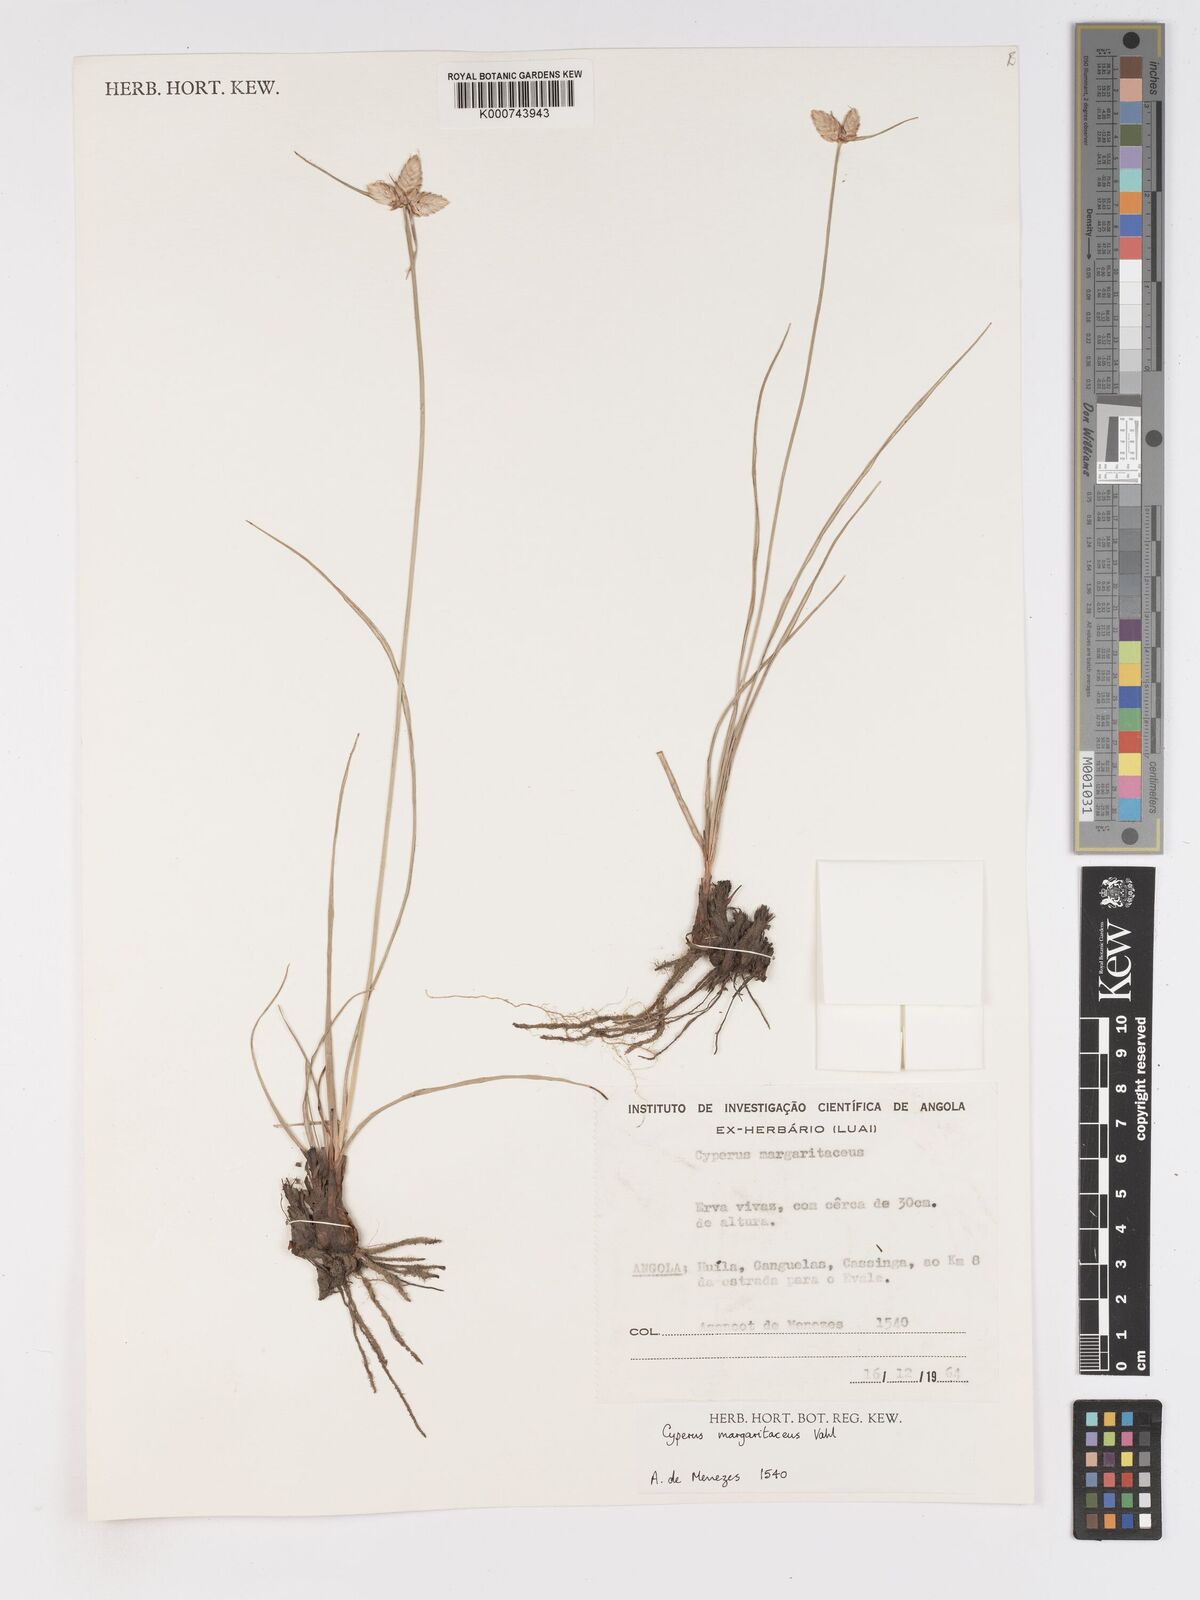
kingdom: Plantae
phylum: Tracheophyta
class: Liliopsida
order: Poales
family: Cyperaceae
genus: Cyperus
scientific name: Cyperus margaritaceus
